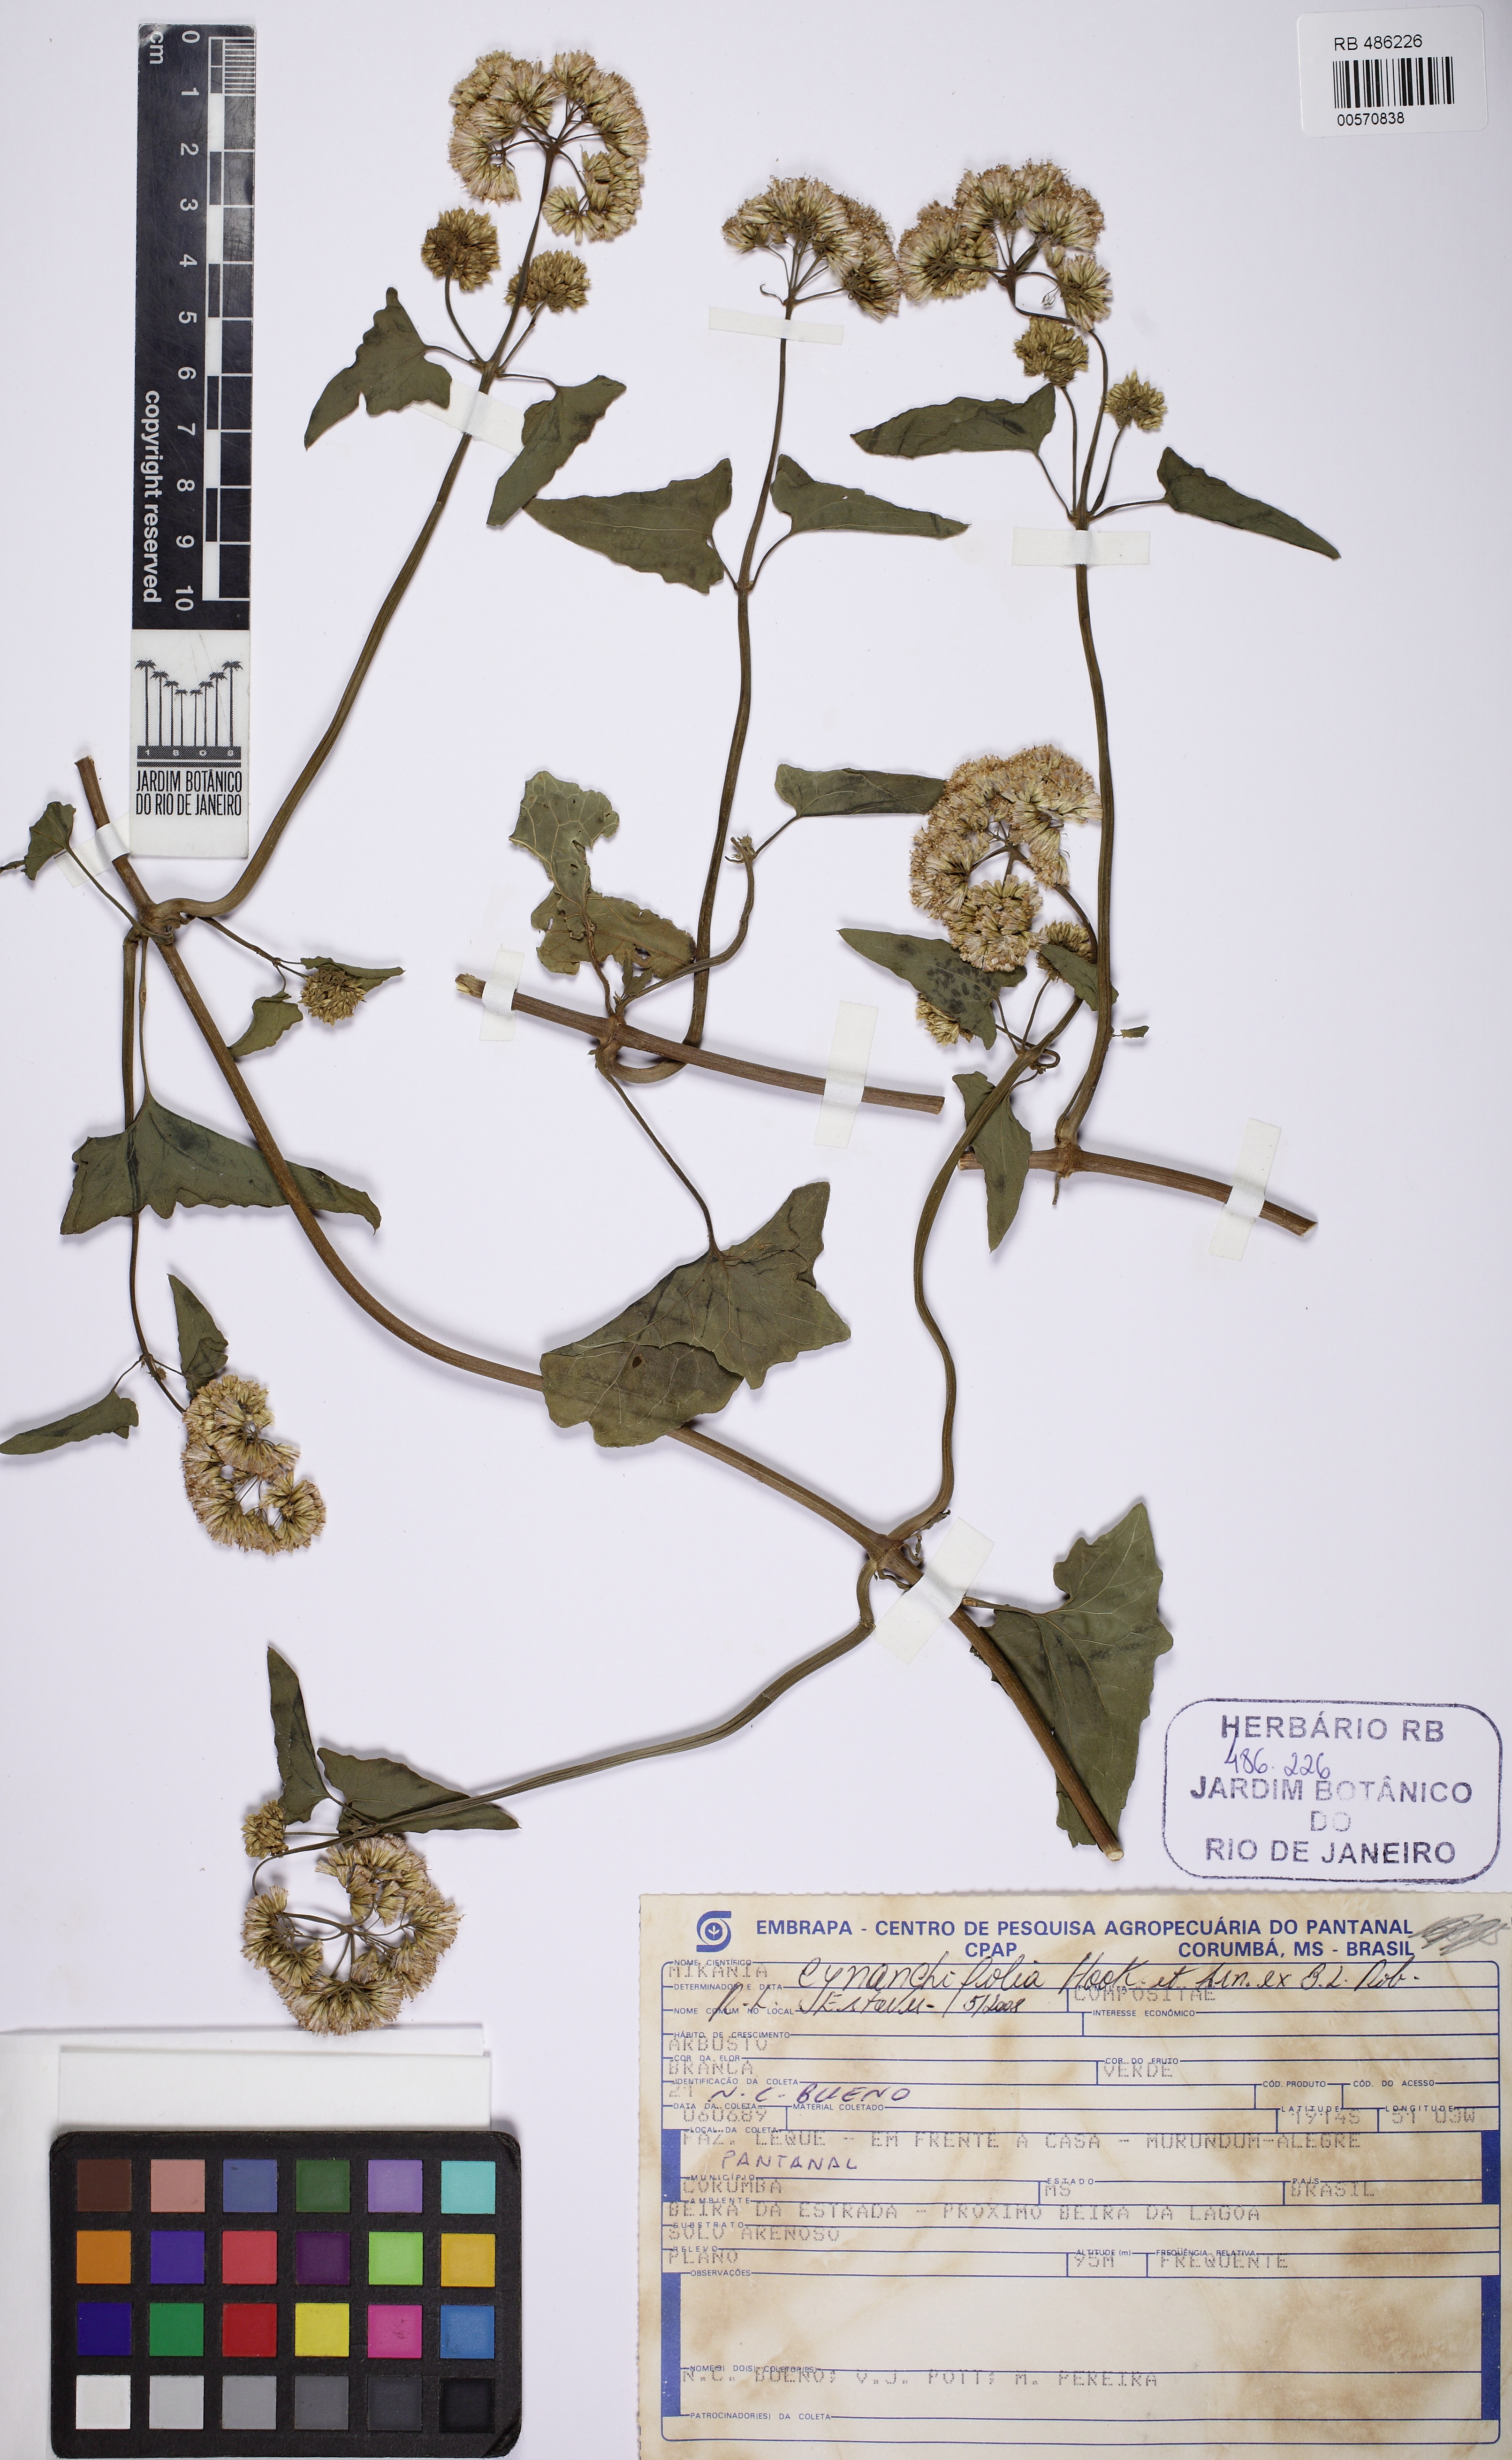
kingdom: Plantae
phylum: Tracheophyta
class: Magnoliopsida
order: Asterales
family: Asteraceae
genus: Mikania
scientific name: Mikania cynanchifolia
